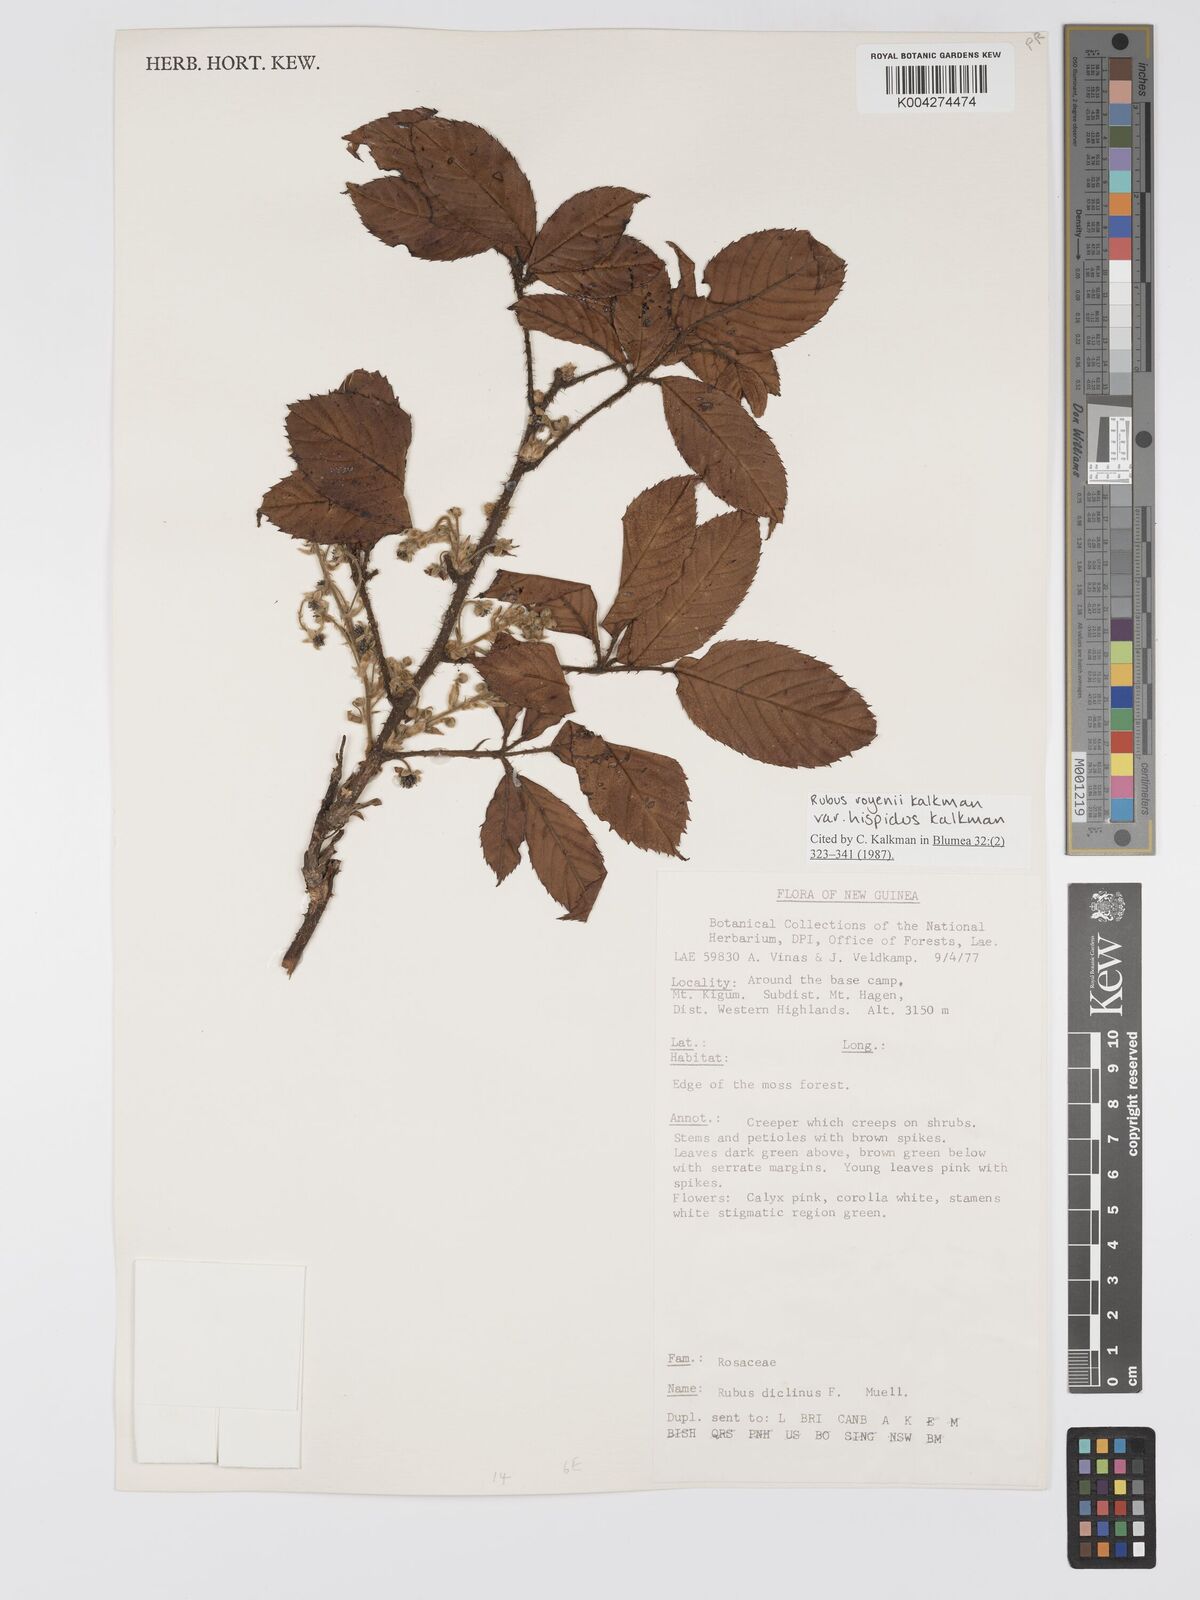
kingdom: Plantae
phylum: Tracheophyta
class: Magnoliopsida
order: Rosales
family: Rosaceae
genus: Rubus
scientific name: Rubus royenii
